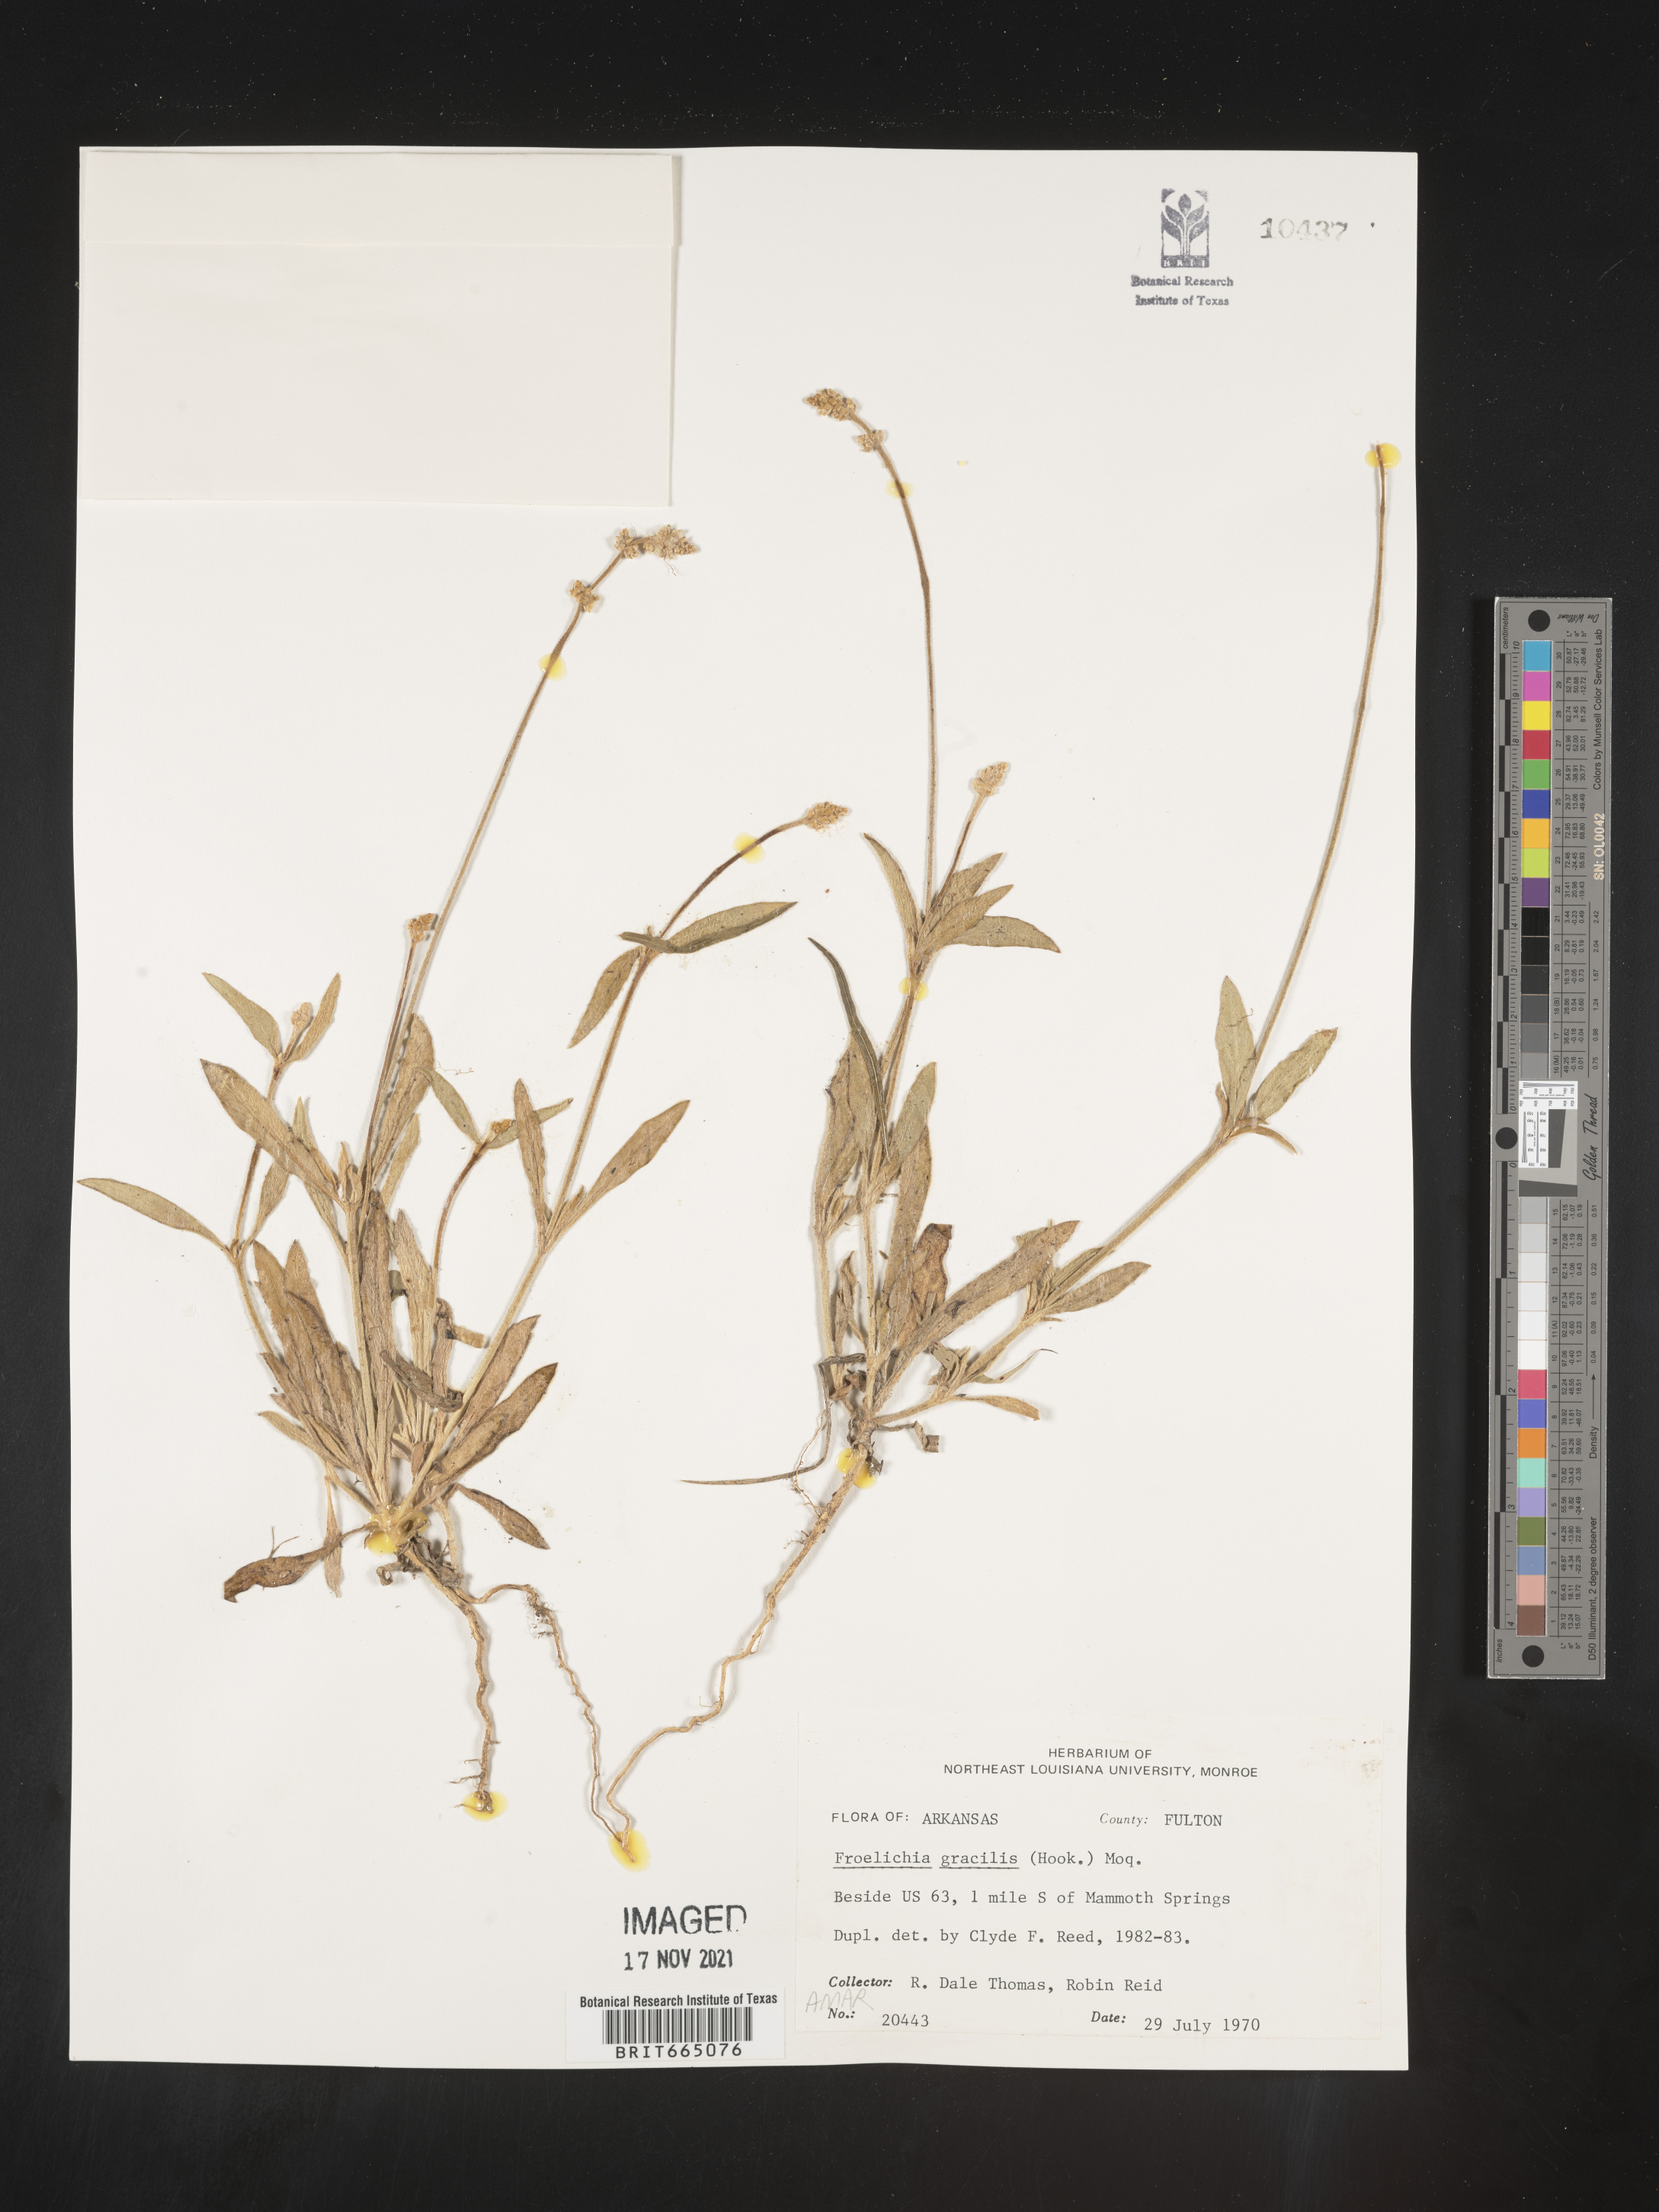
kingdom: Plantae
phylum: Tracheophyta
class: Magnoliopsida
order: Caryophyllales
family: Amaranthaceae
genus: Froelichia
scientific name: Froelichia gracilis
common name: Slender cottonweed
